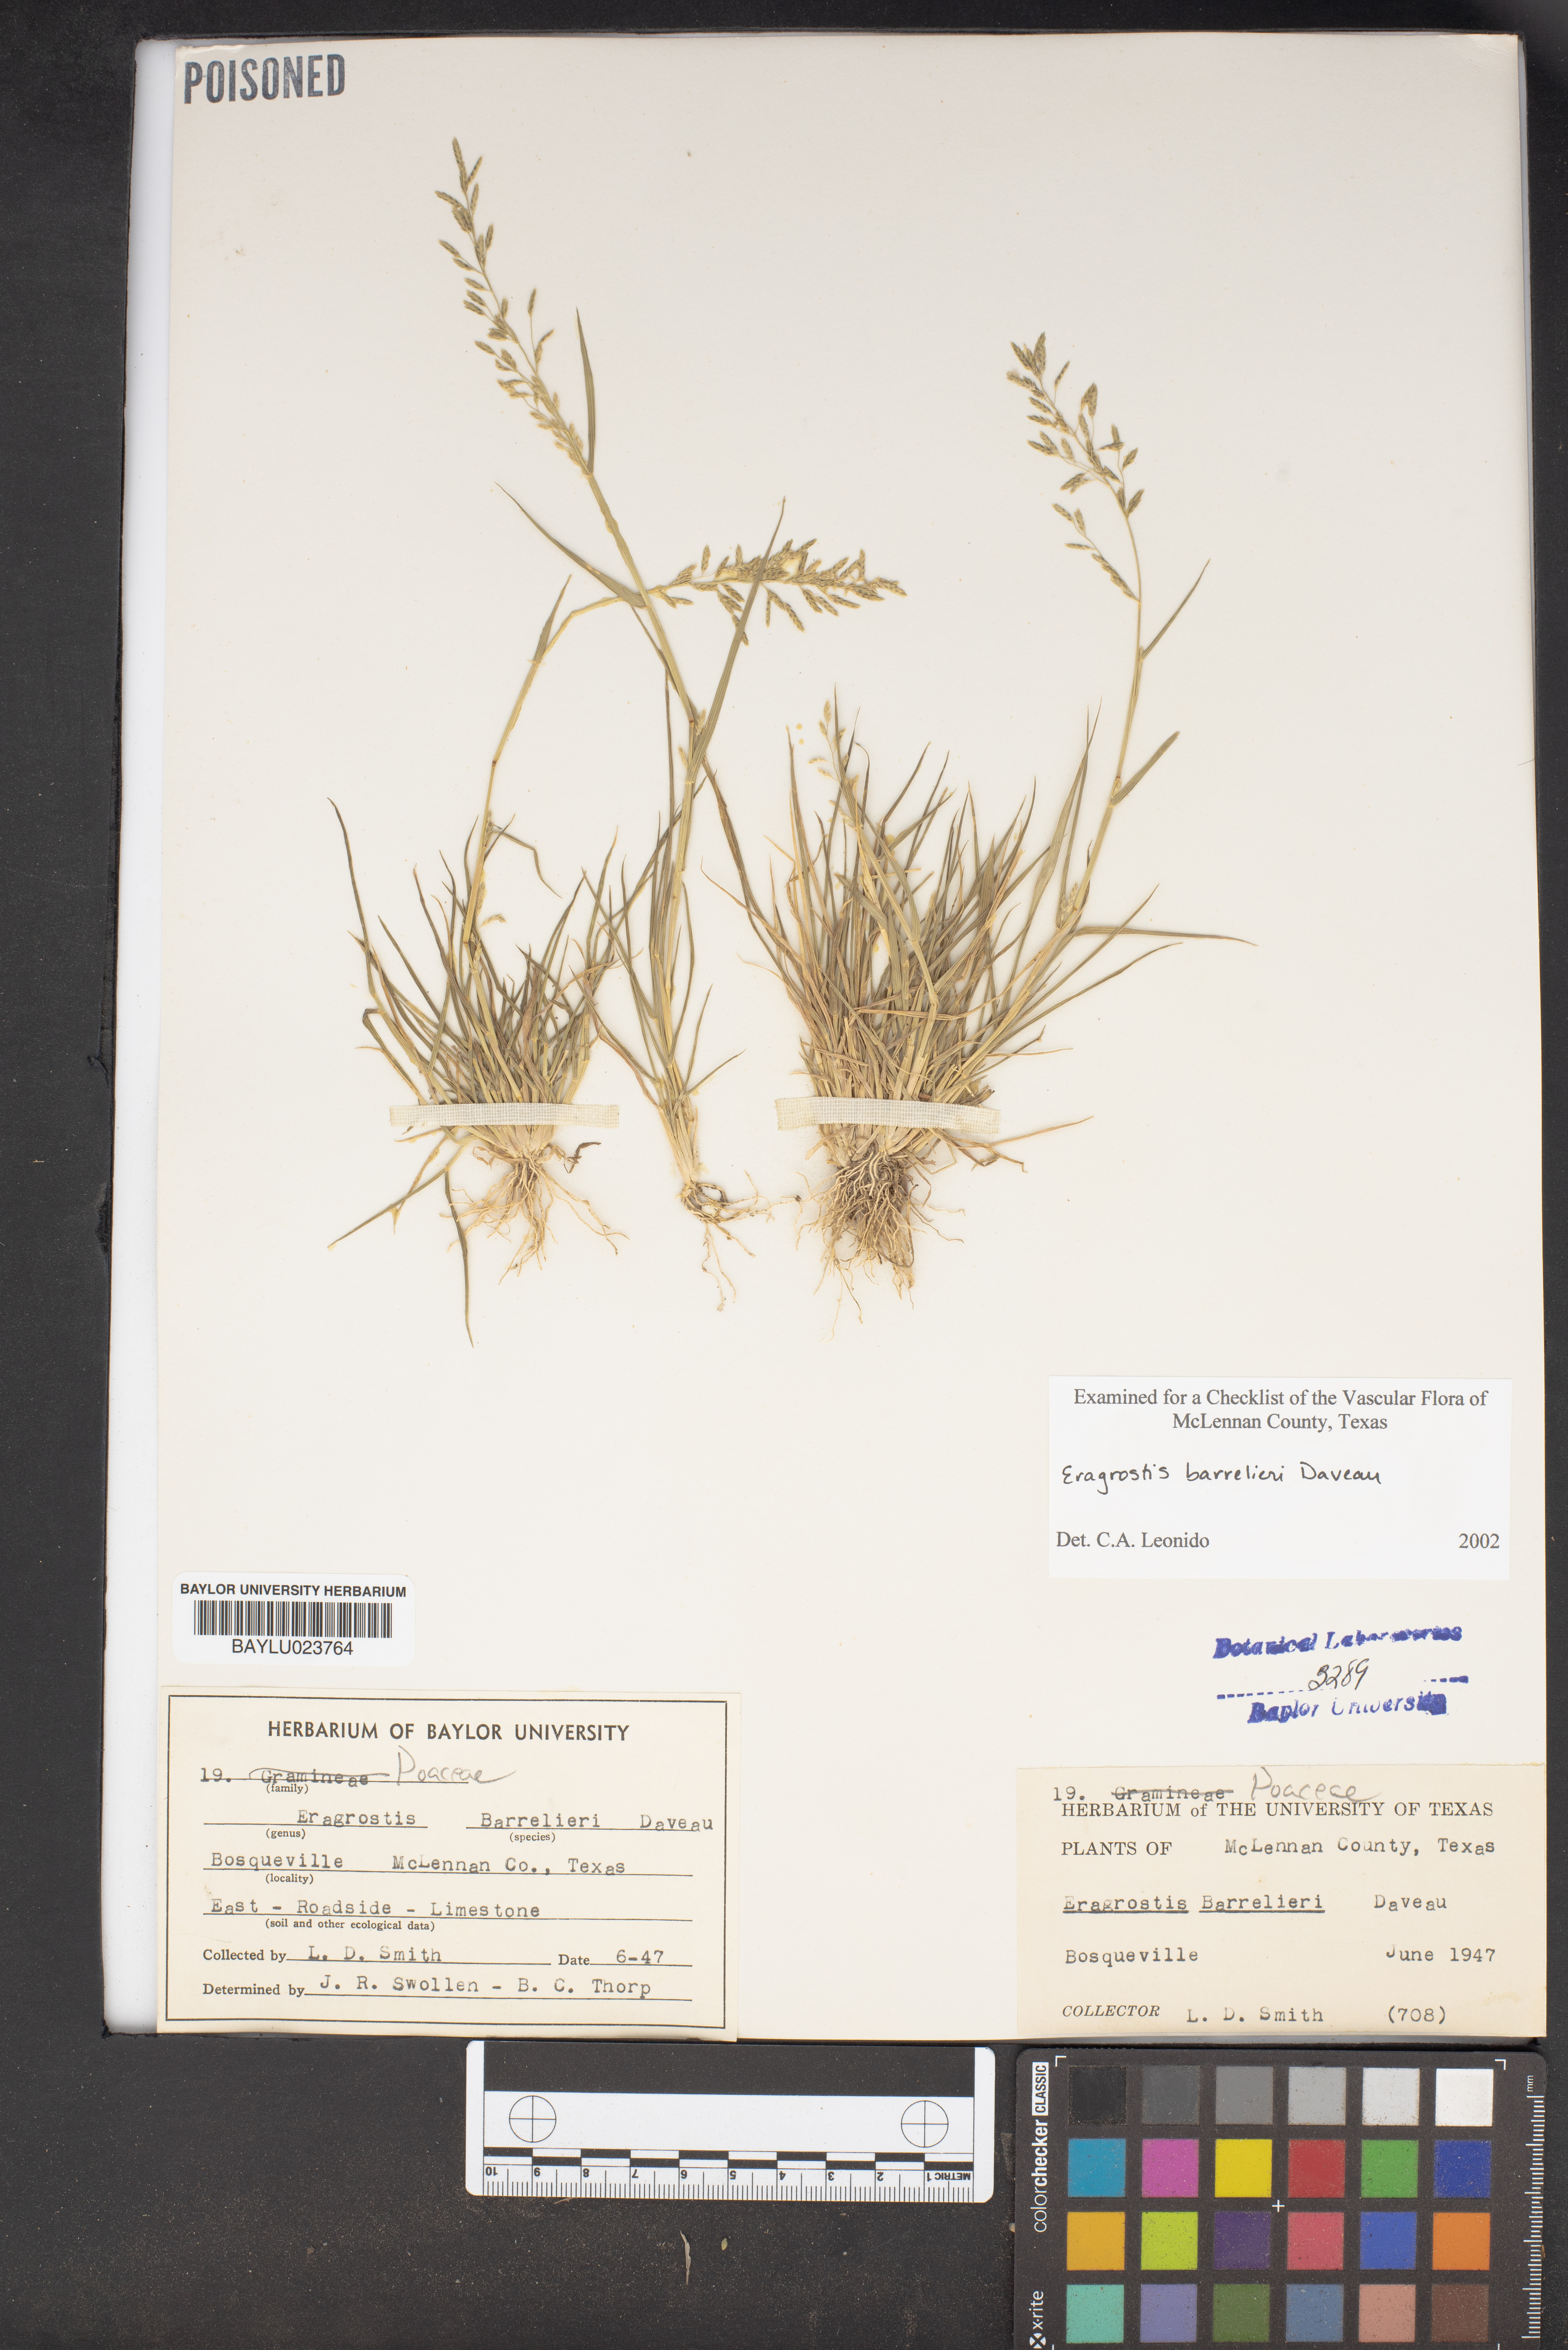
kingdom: Plantae
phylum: Tracheophyta
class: Liliopsida
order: Poales
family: Poaceae
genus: Eragrostis
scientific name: Eragrostis barrelieri
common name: Mediterranean lovegrass
